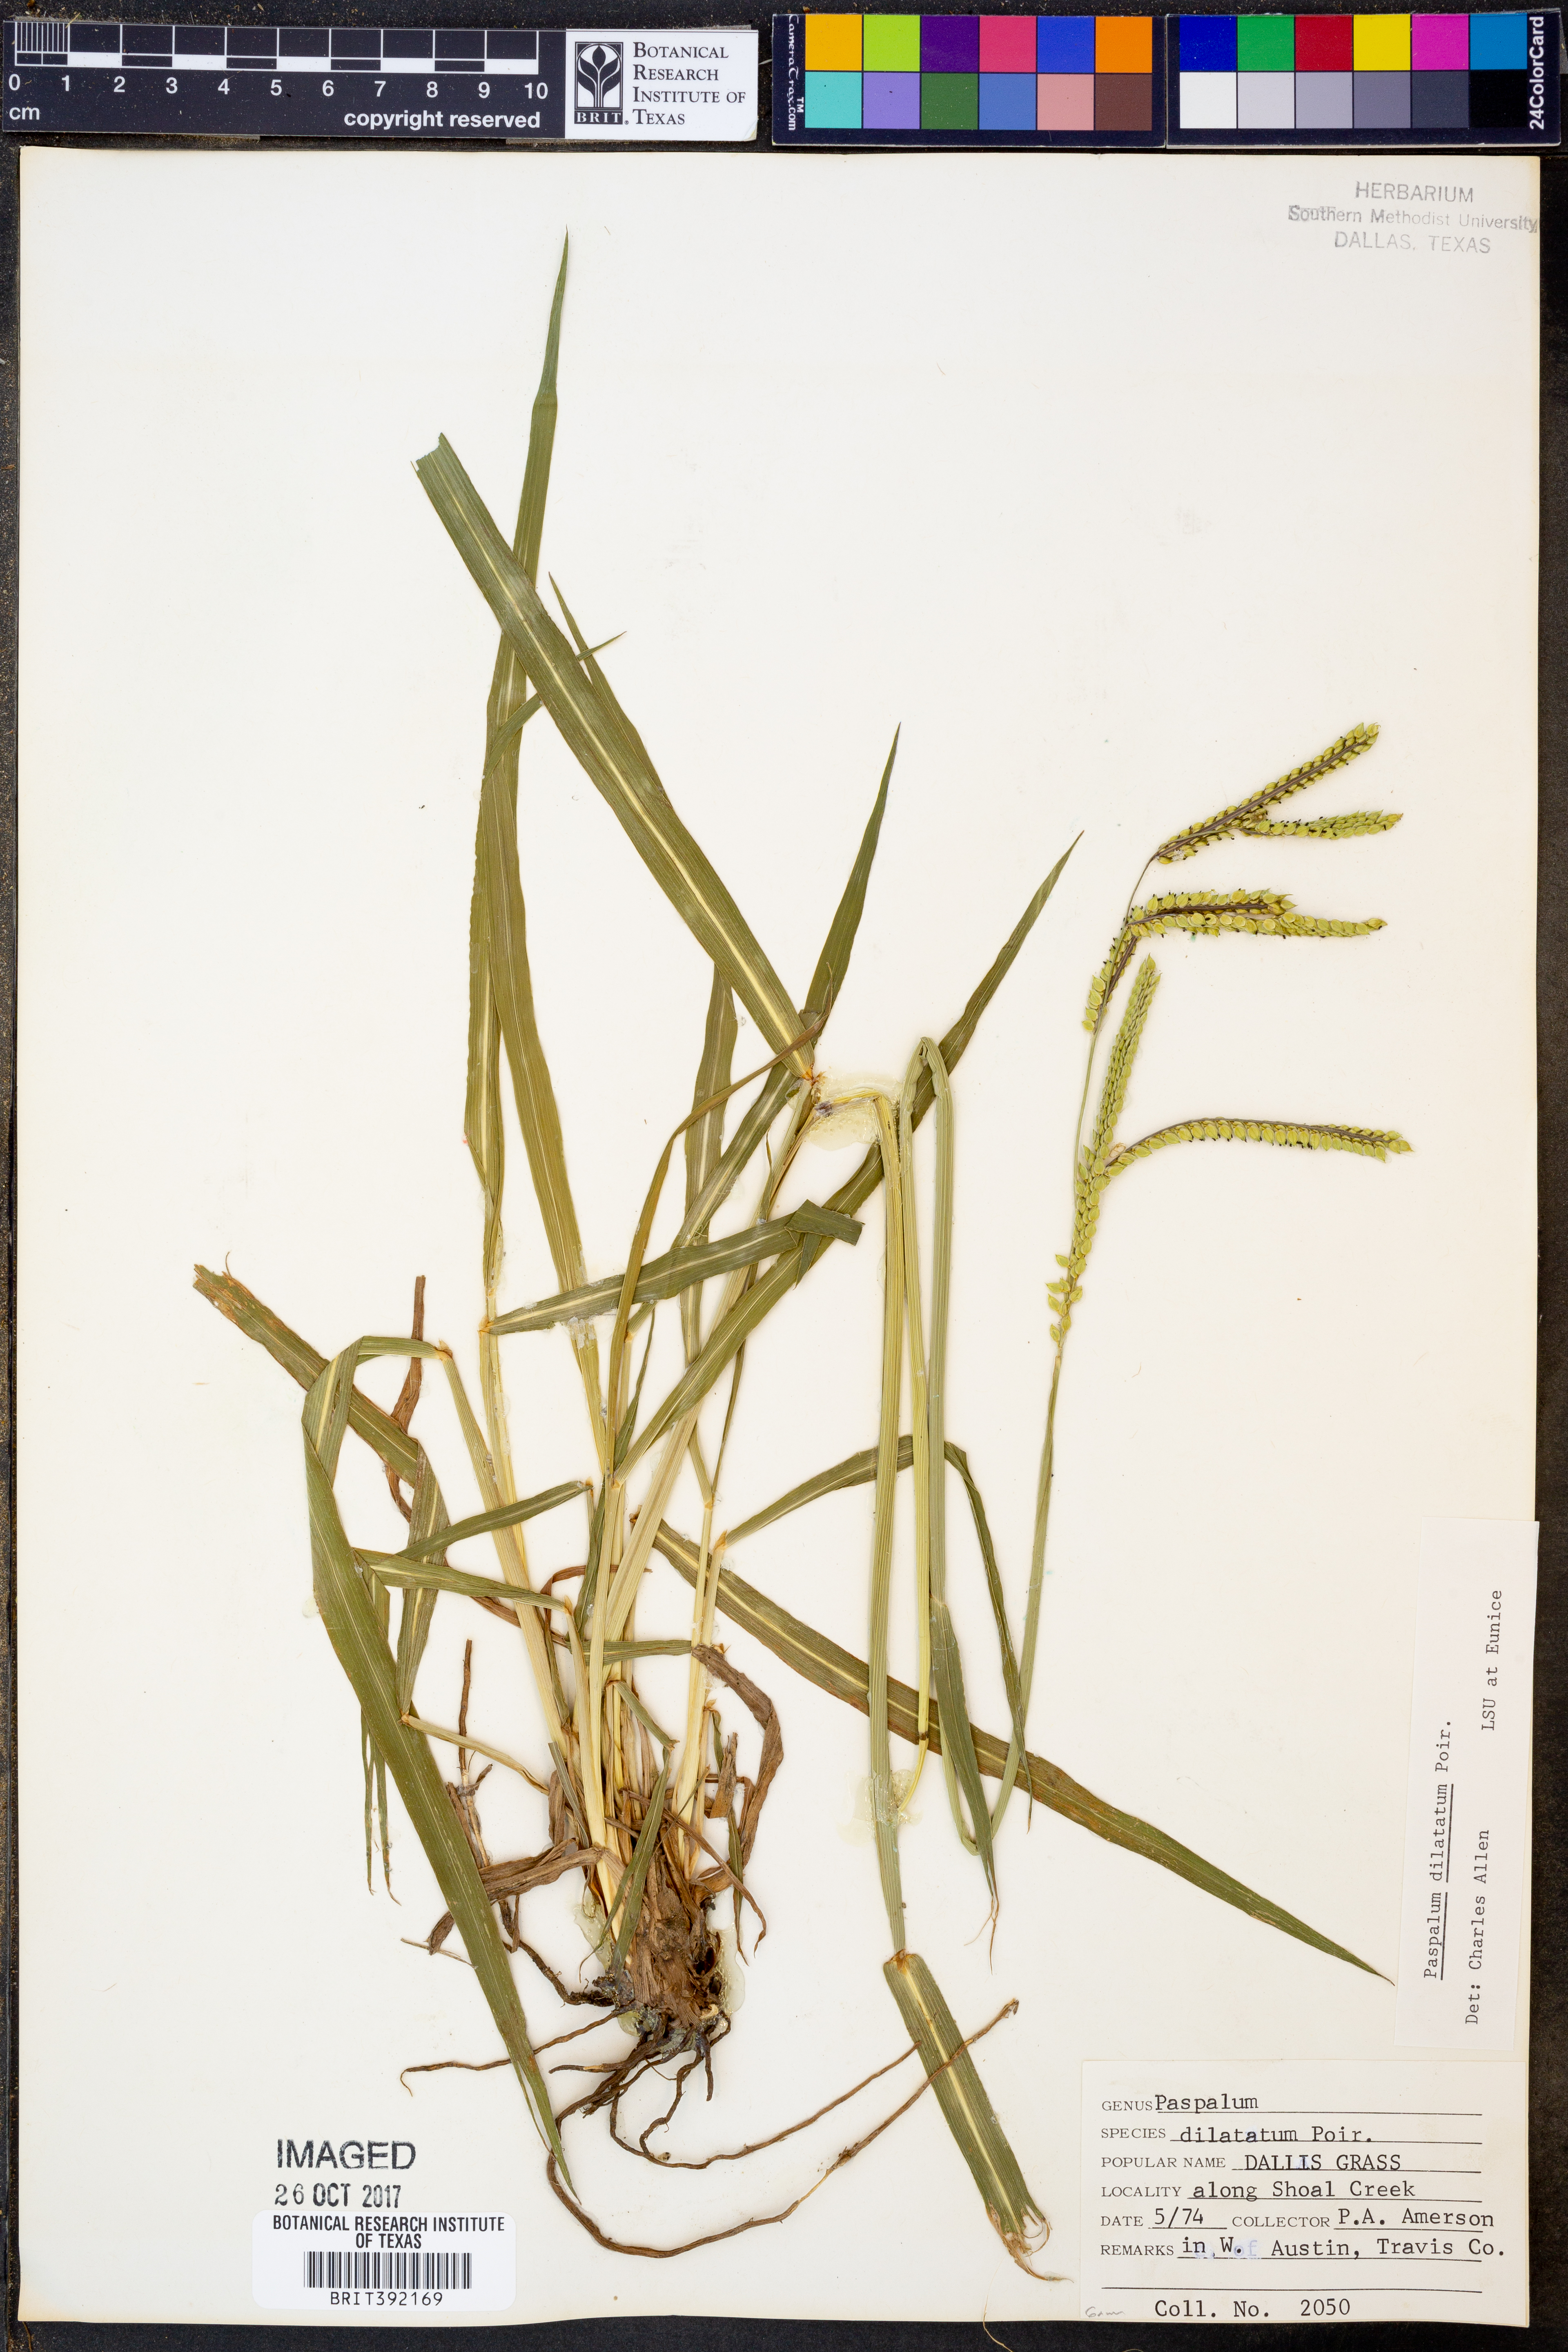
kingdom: Plantae
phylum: Tracheophyta
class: Liliopsida
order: Poales
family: Poaceae
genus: Paspalum
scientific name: Paspalum dilatatum
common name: Dallisgrass
